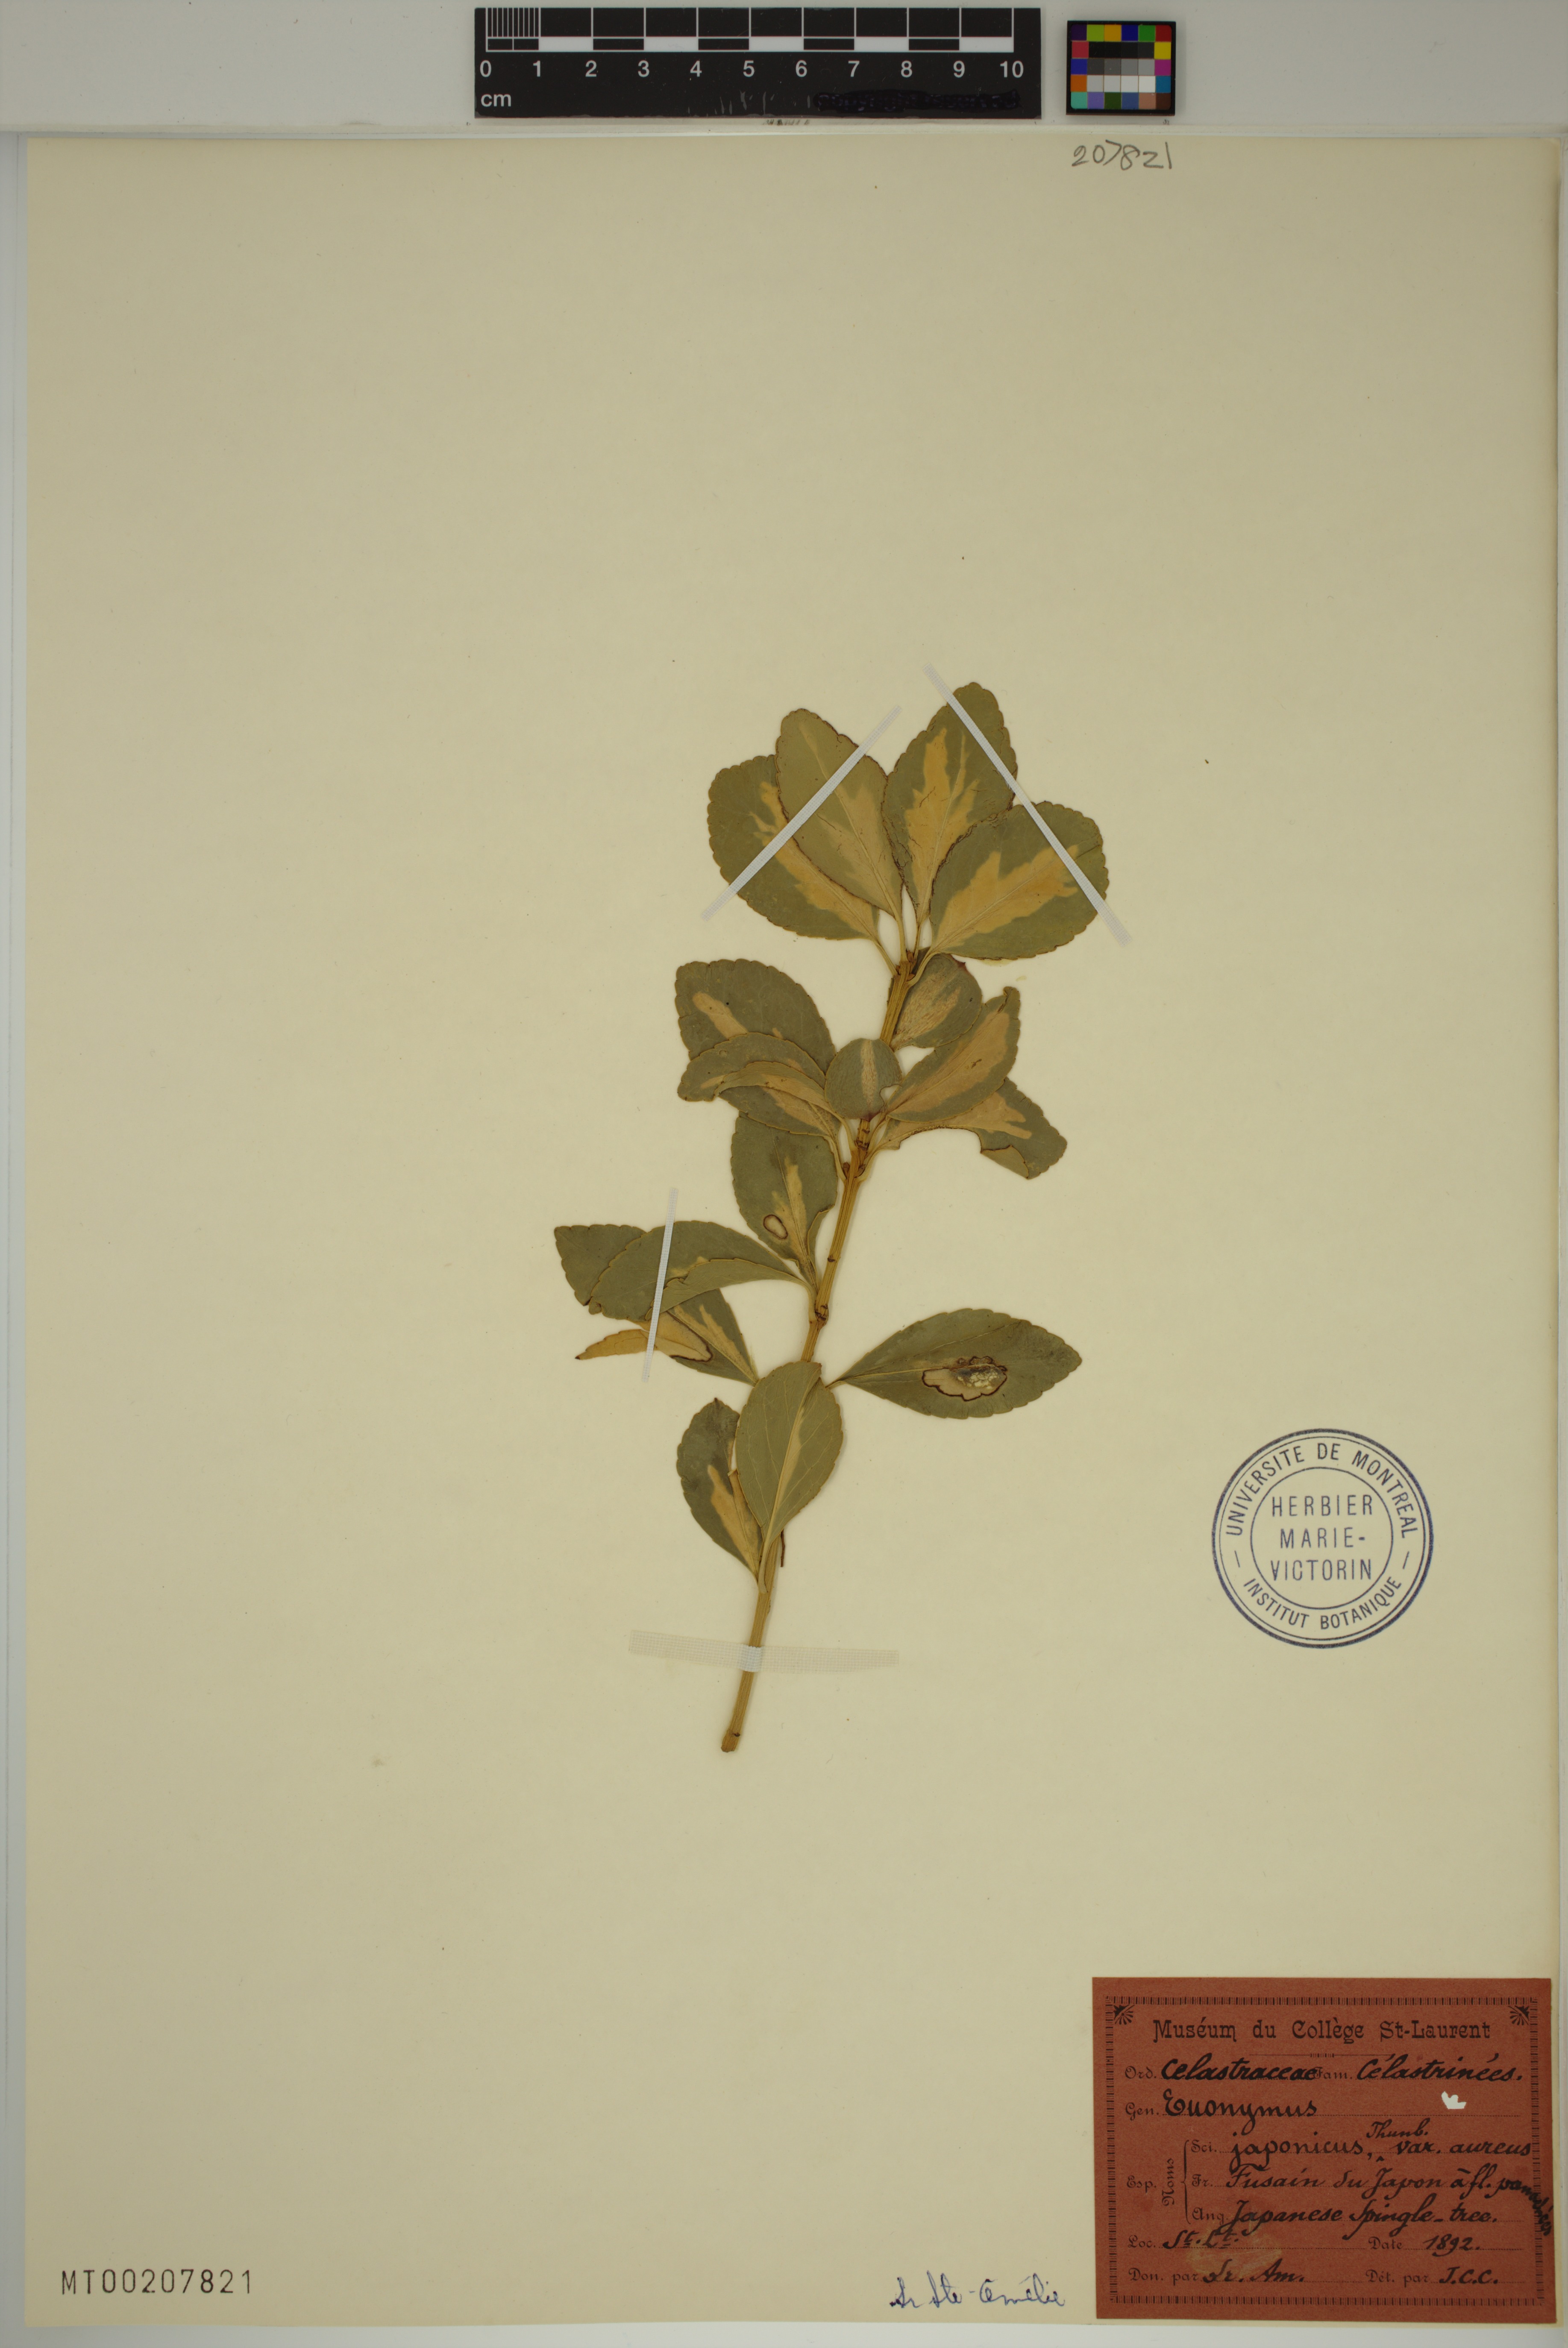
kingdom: Plantae
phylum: Tracheophyta
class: Magnoliopsida
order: Celastrales
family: Celastraceae
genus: Euonymus
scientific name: Euonymus japonicus
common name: Japanese spindletree
